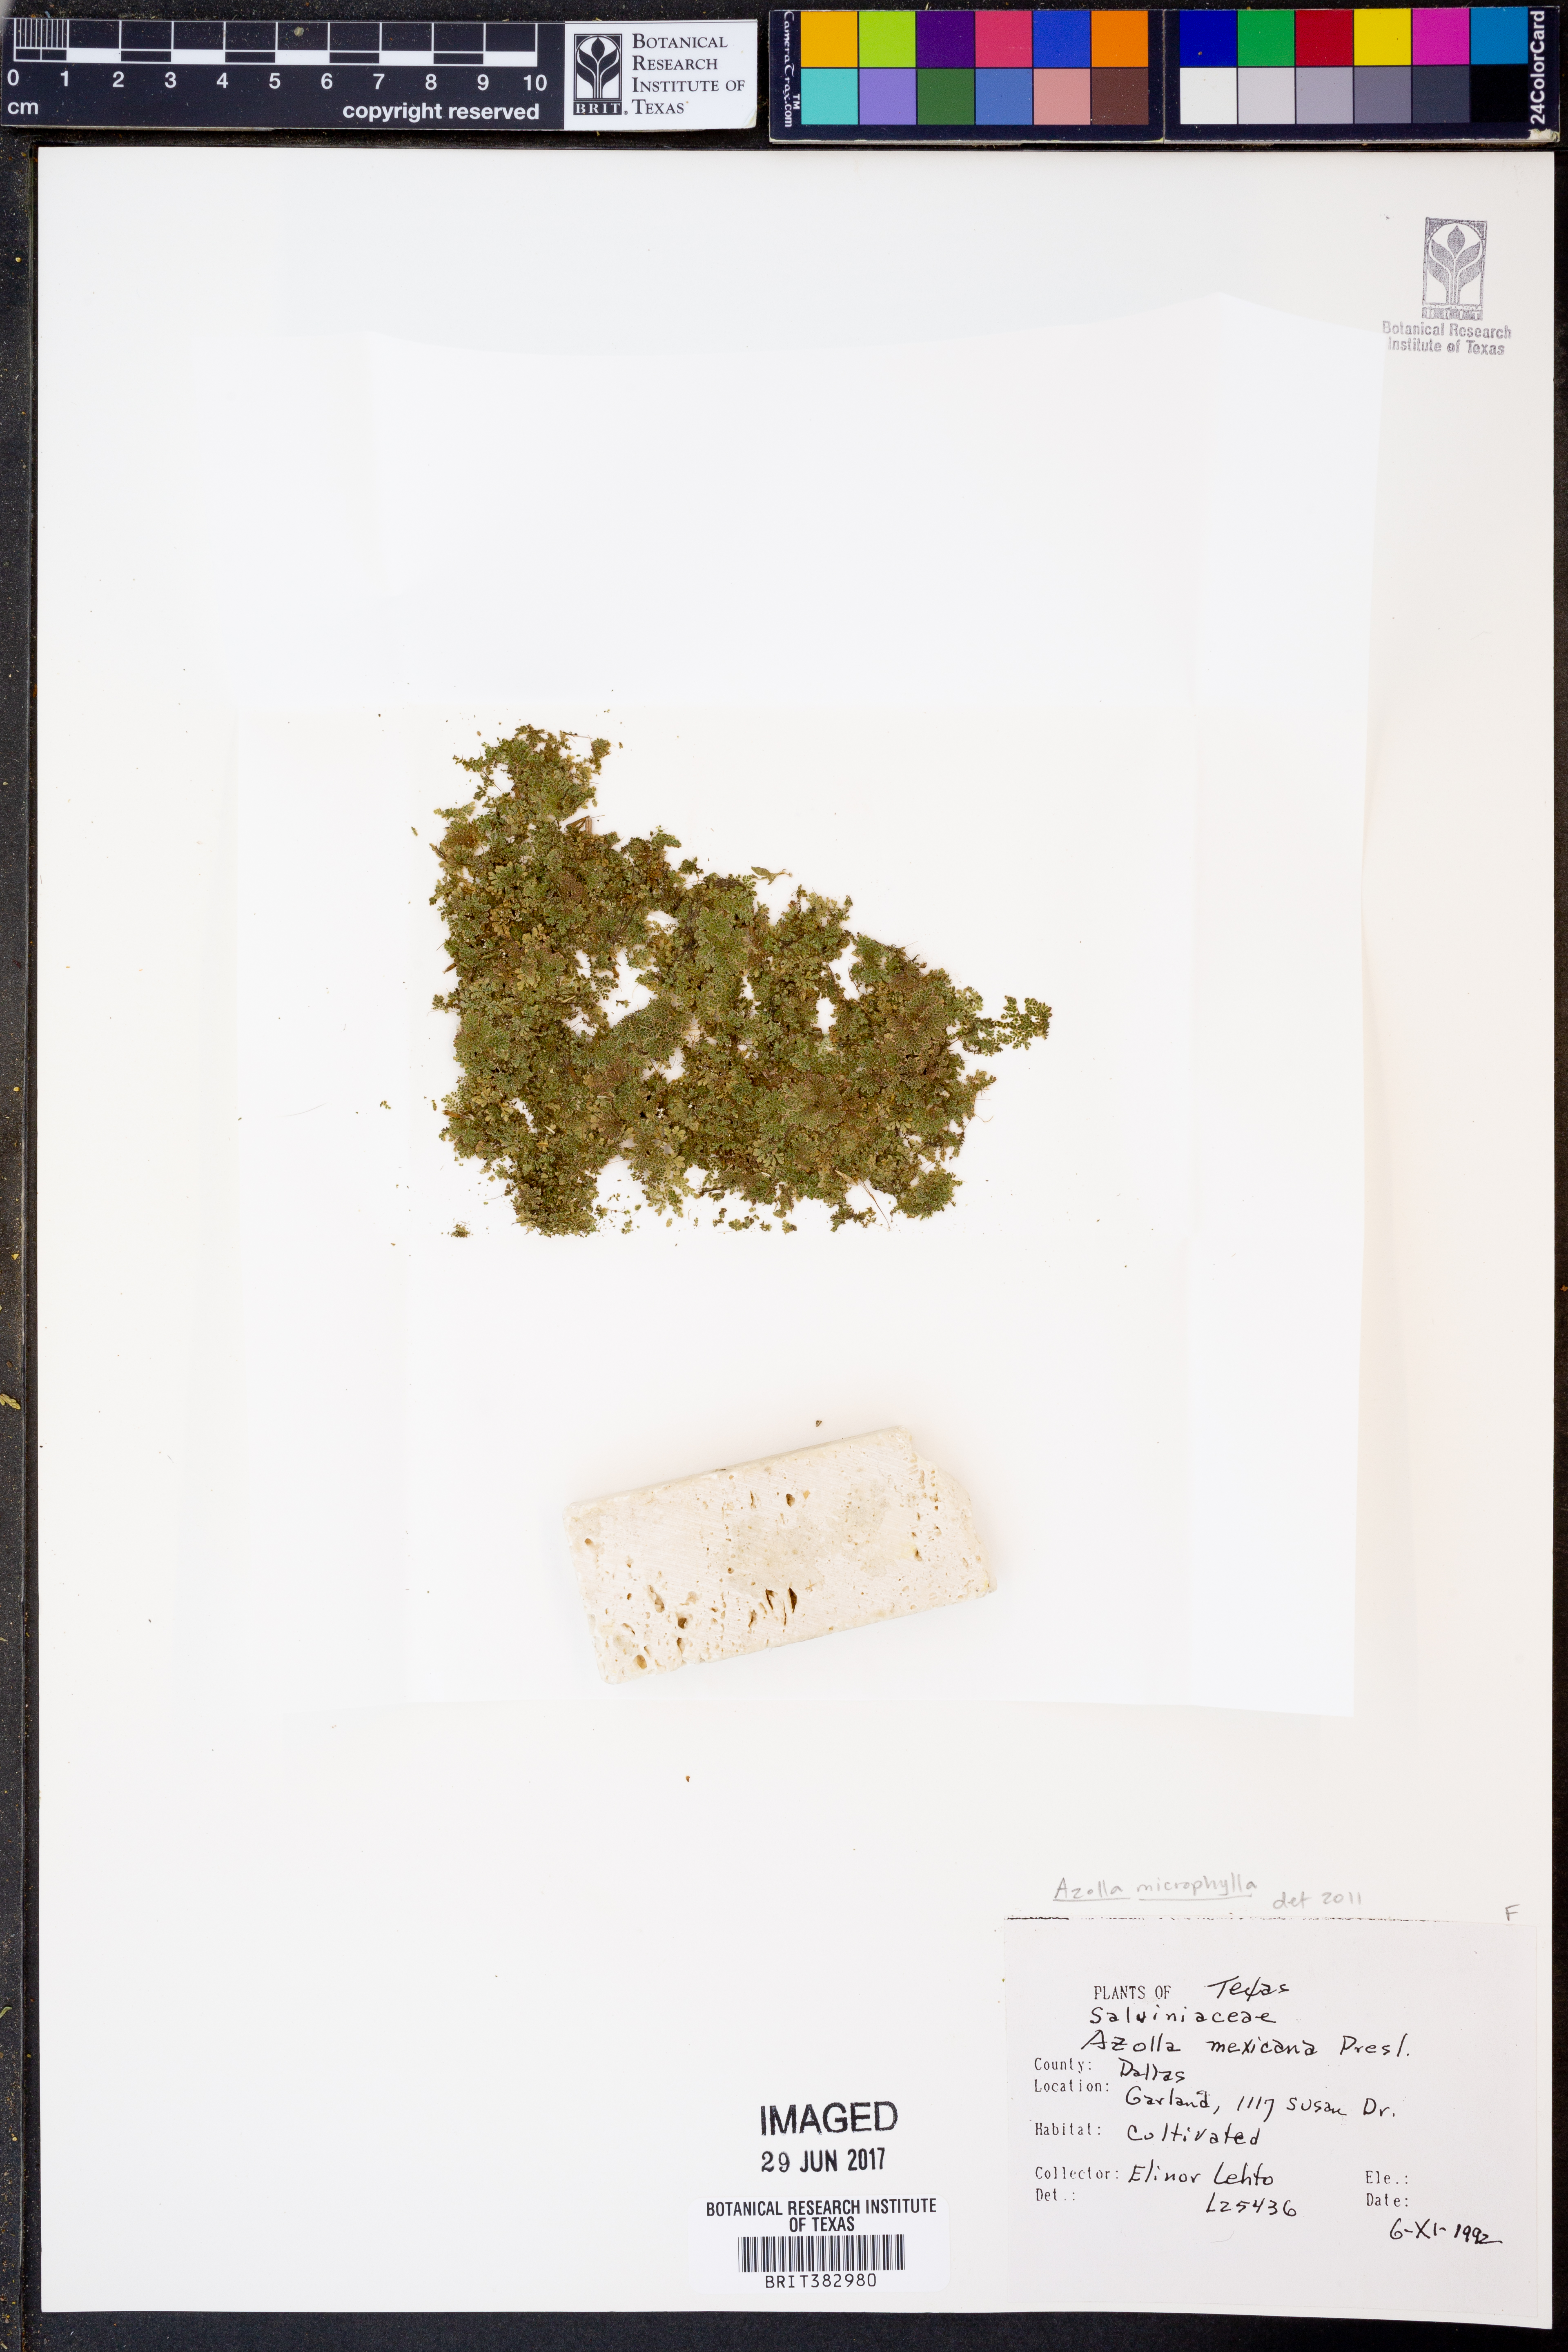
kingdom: Plantae
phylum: Tracheophyta
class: Polypodiopsida
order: Salviniales
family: Salviniaceae
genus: Azolla
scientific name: Azolla cristata
